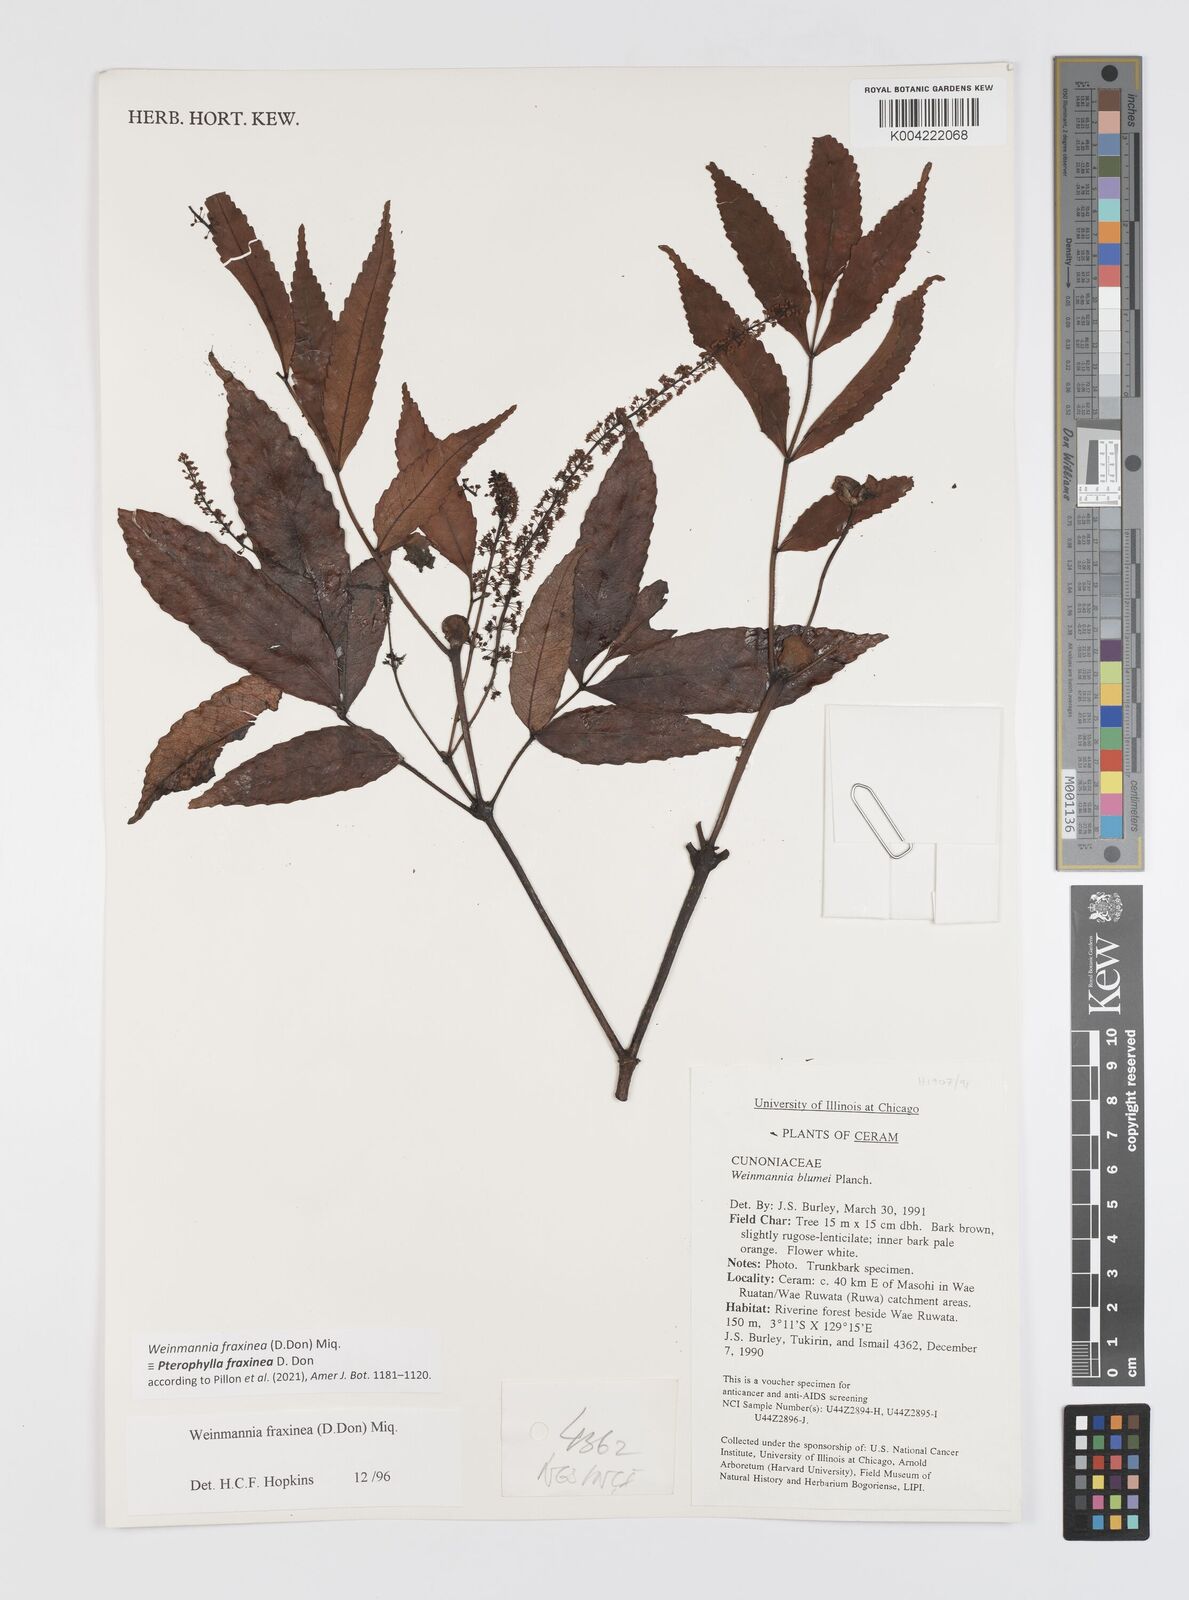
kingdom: Plantae
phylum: Tracheophyta
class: Magnoliopsida
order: Oxalidales
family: Cunoniaceae
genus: Pterophylla
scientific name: Pterophylla fraxinea
